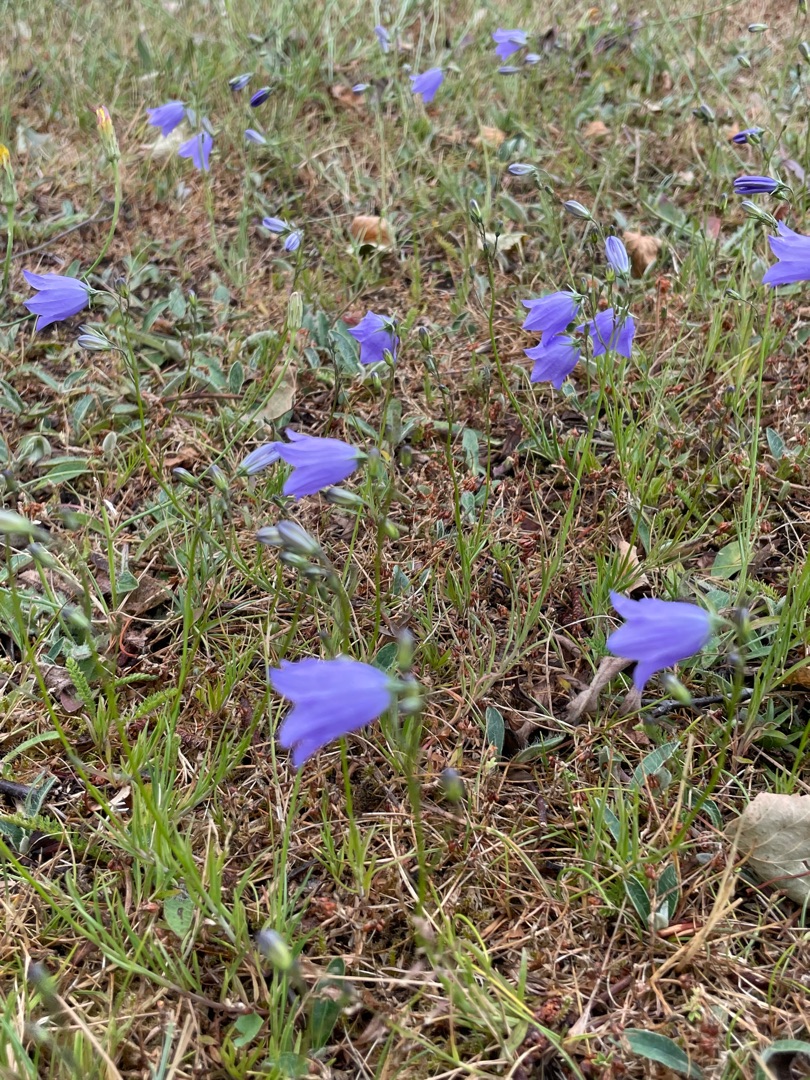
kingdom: Plantae
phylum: Tracheophyta
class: Magnoliopsida
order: Asterales
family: Campanulaceae
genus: Campanula
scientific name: Campanula rotundifolia
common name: Liden klokke
